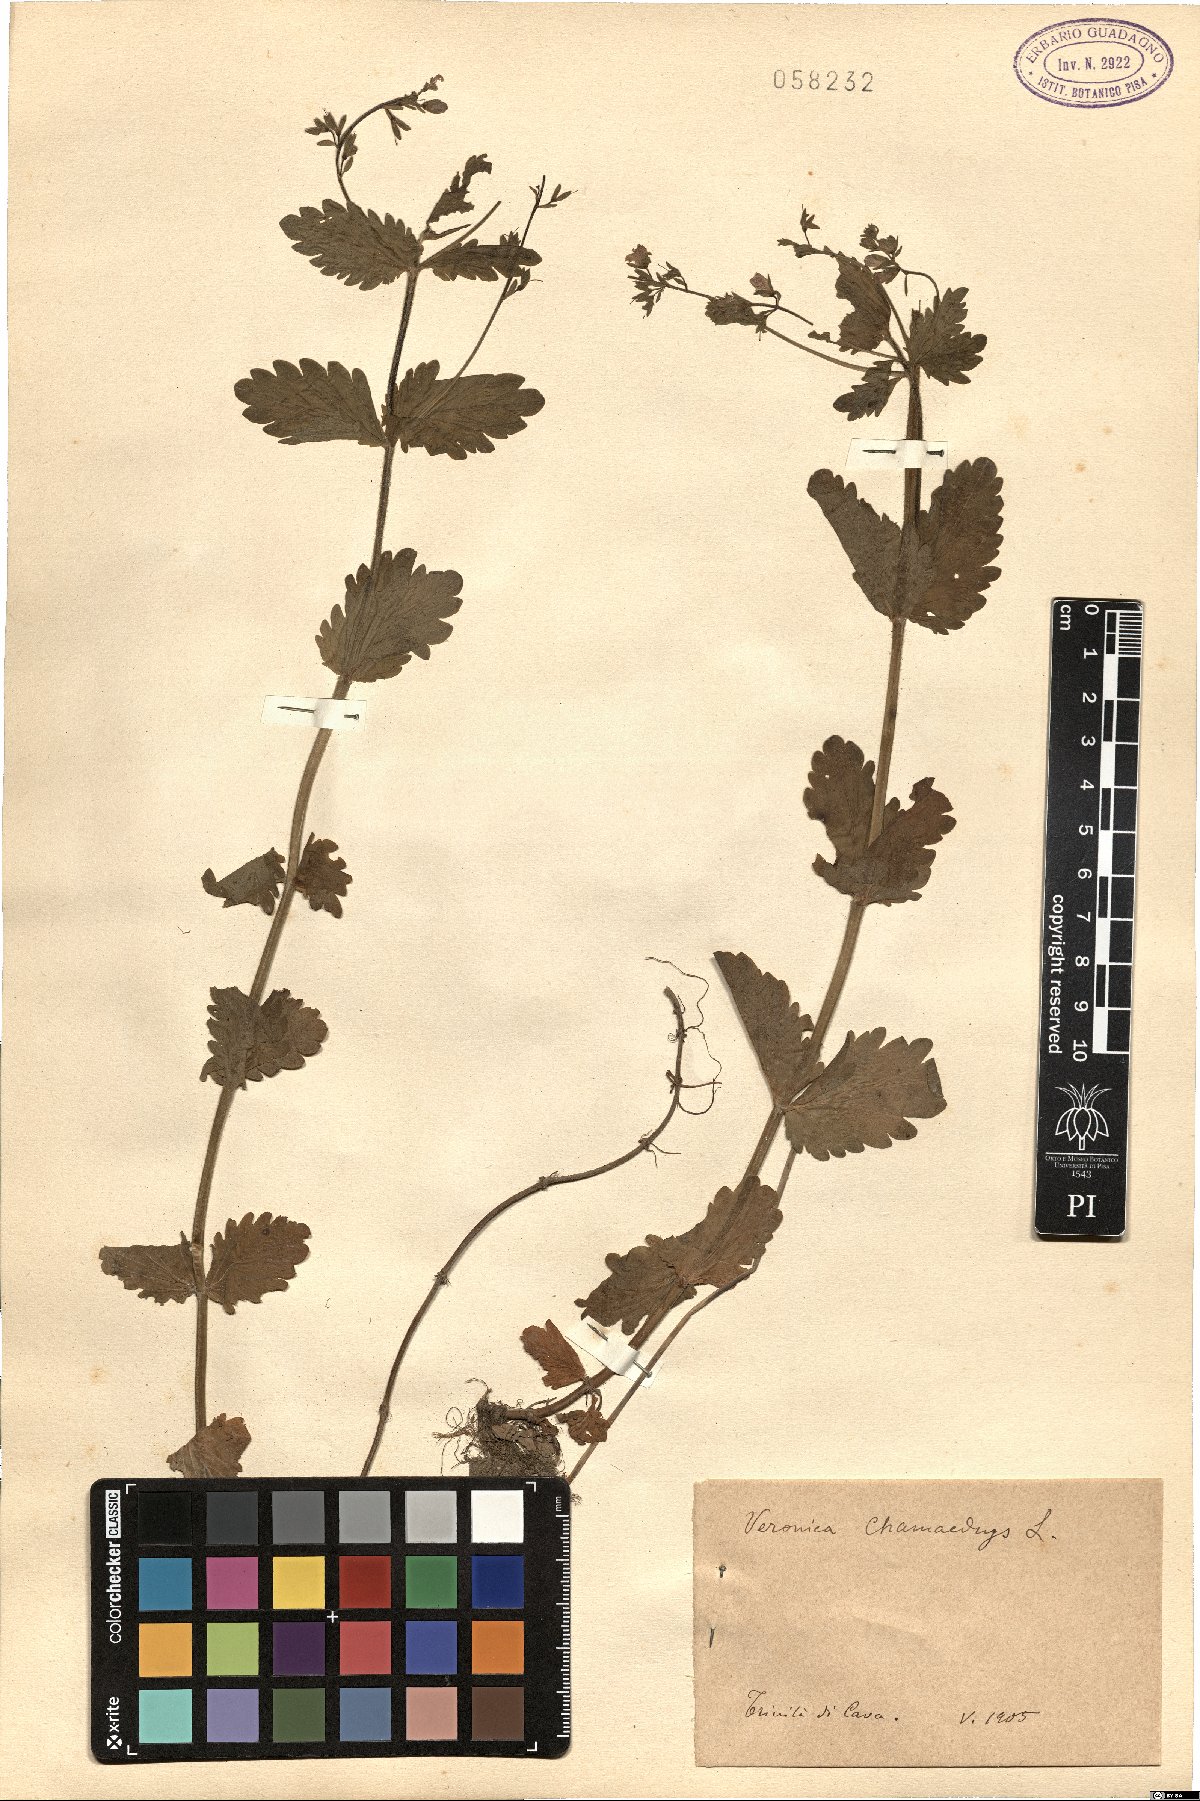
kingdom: Plantae
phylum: Tracheophyta
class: Magnoliopsida
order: Lamiales
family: Plantaginaceae
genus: Veronica
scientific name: Veronica chamaedrys
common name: Germander speedwell
